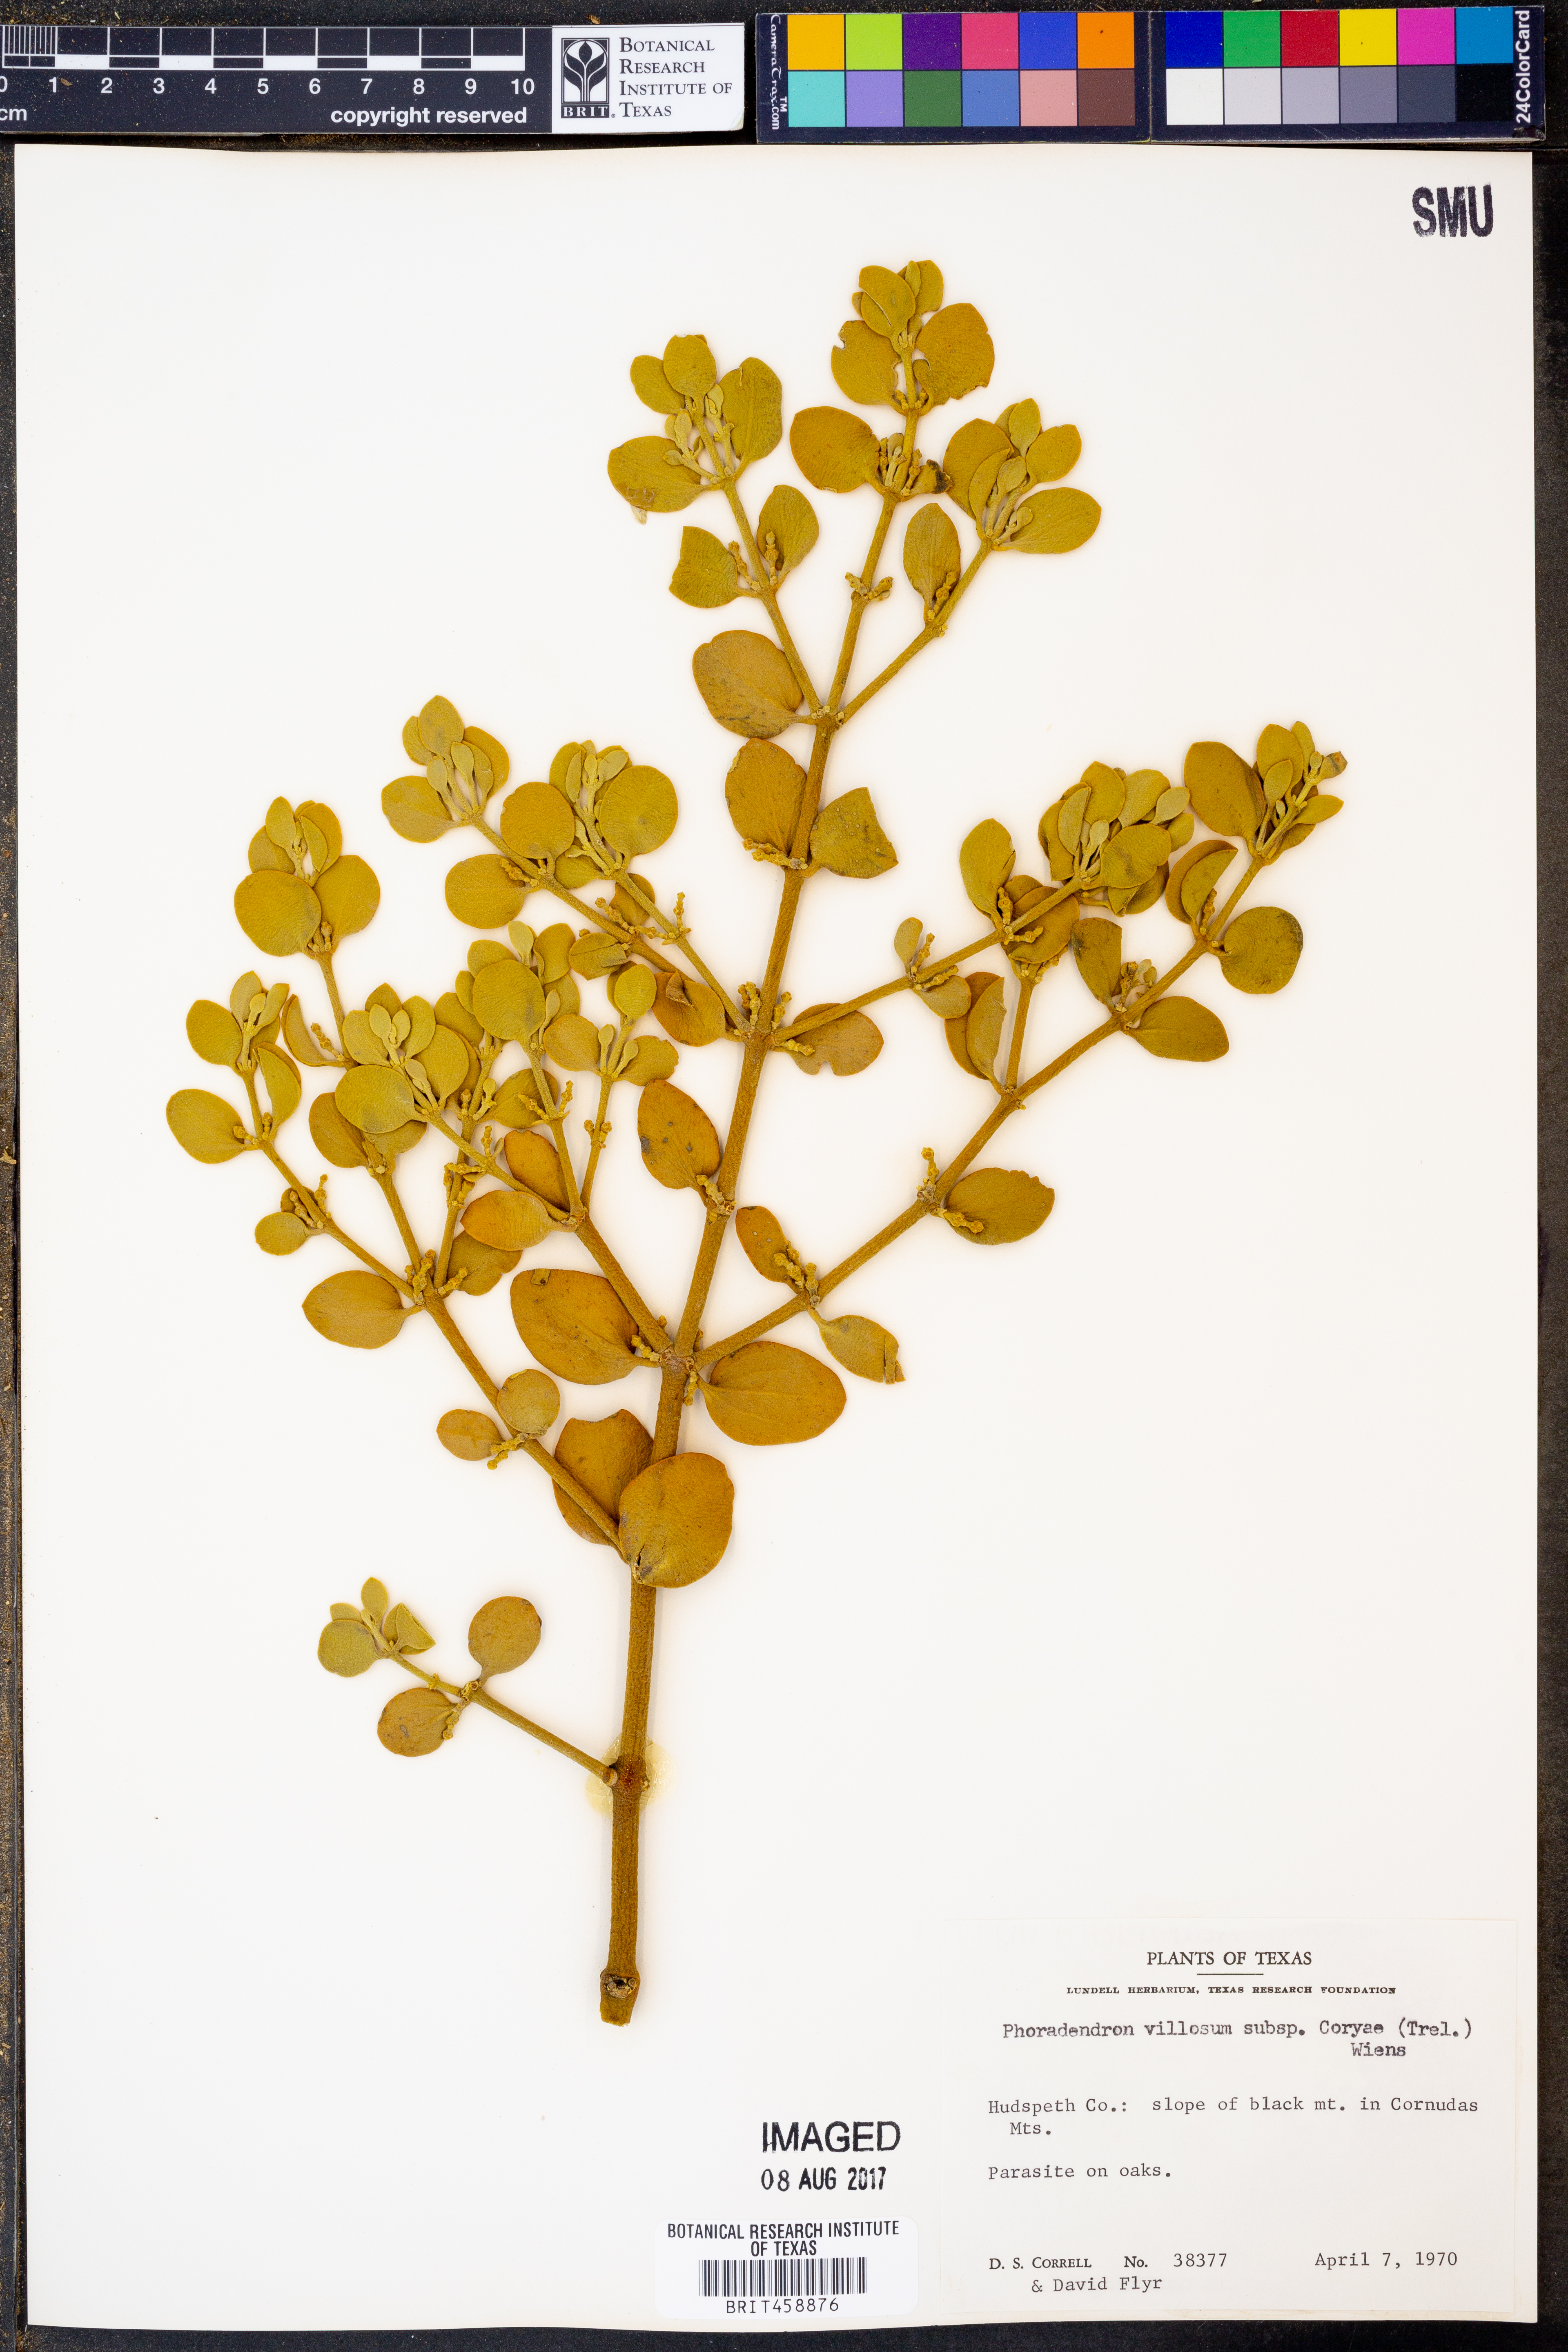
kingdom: Plantae
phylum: Tracheophyta
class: Magnoliopsida
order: Santalales
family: Viscaceae
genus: Phoradendron
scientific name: Phoradendron coryae
